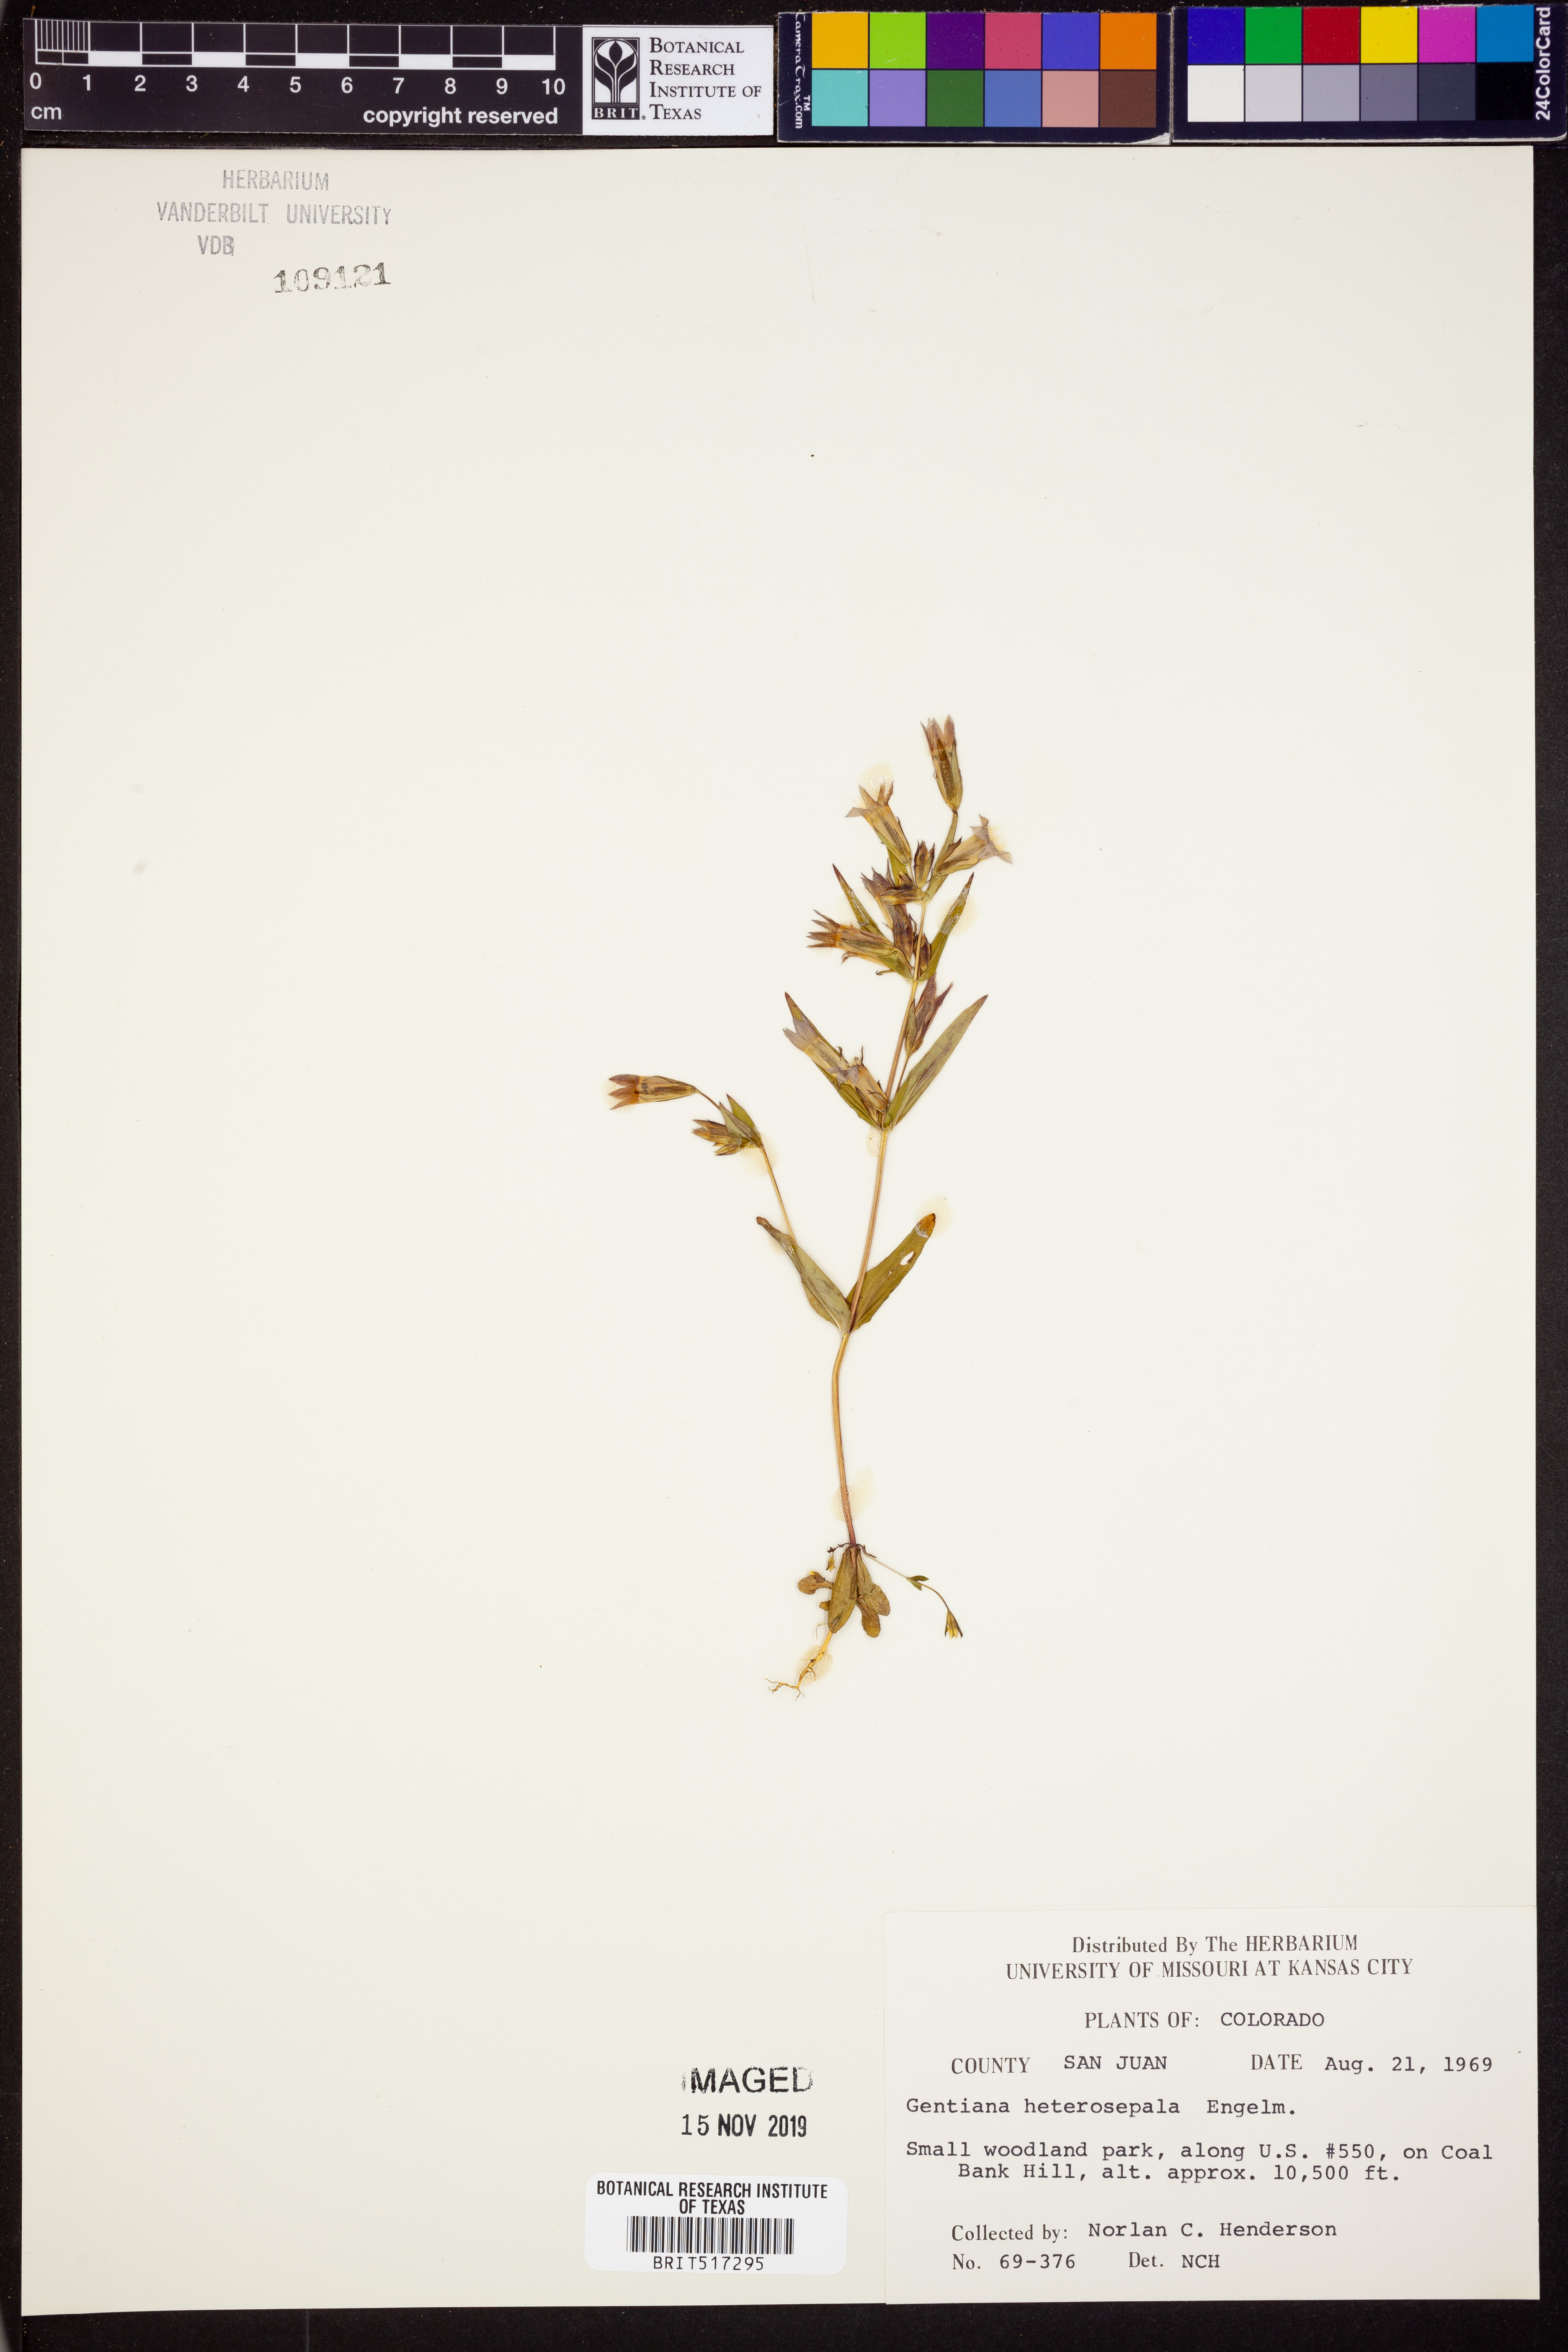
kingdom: Plantae
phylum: Tracheophyta
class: Magnoliopsida
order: Gentianales
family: Gentianaceae
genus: Gentianella
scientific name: Gentianella heterosepala
